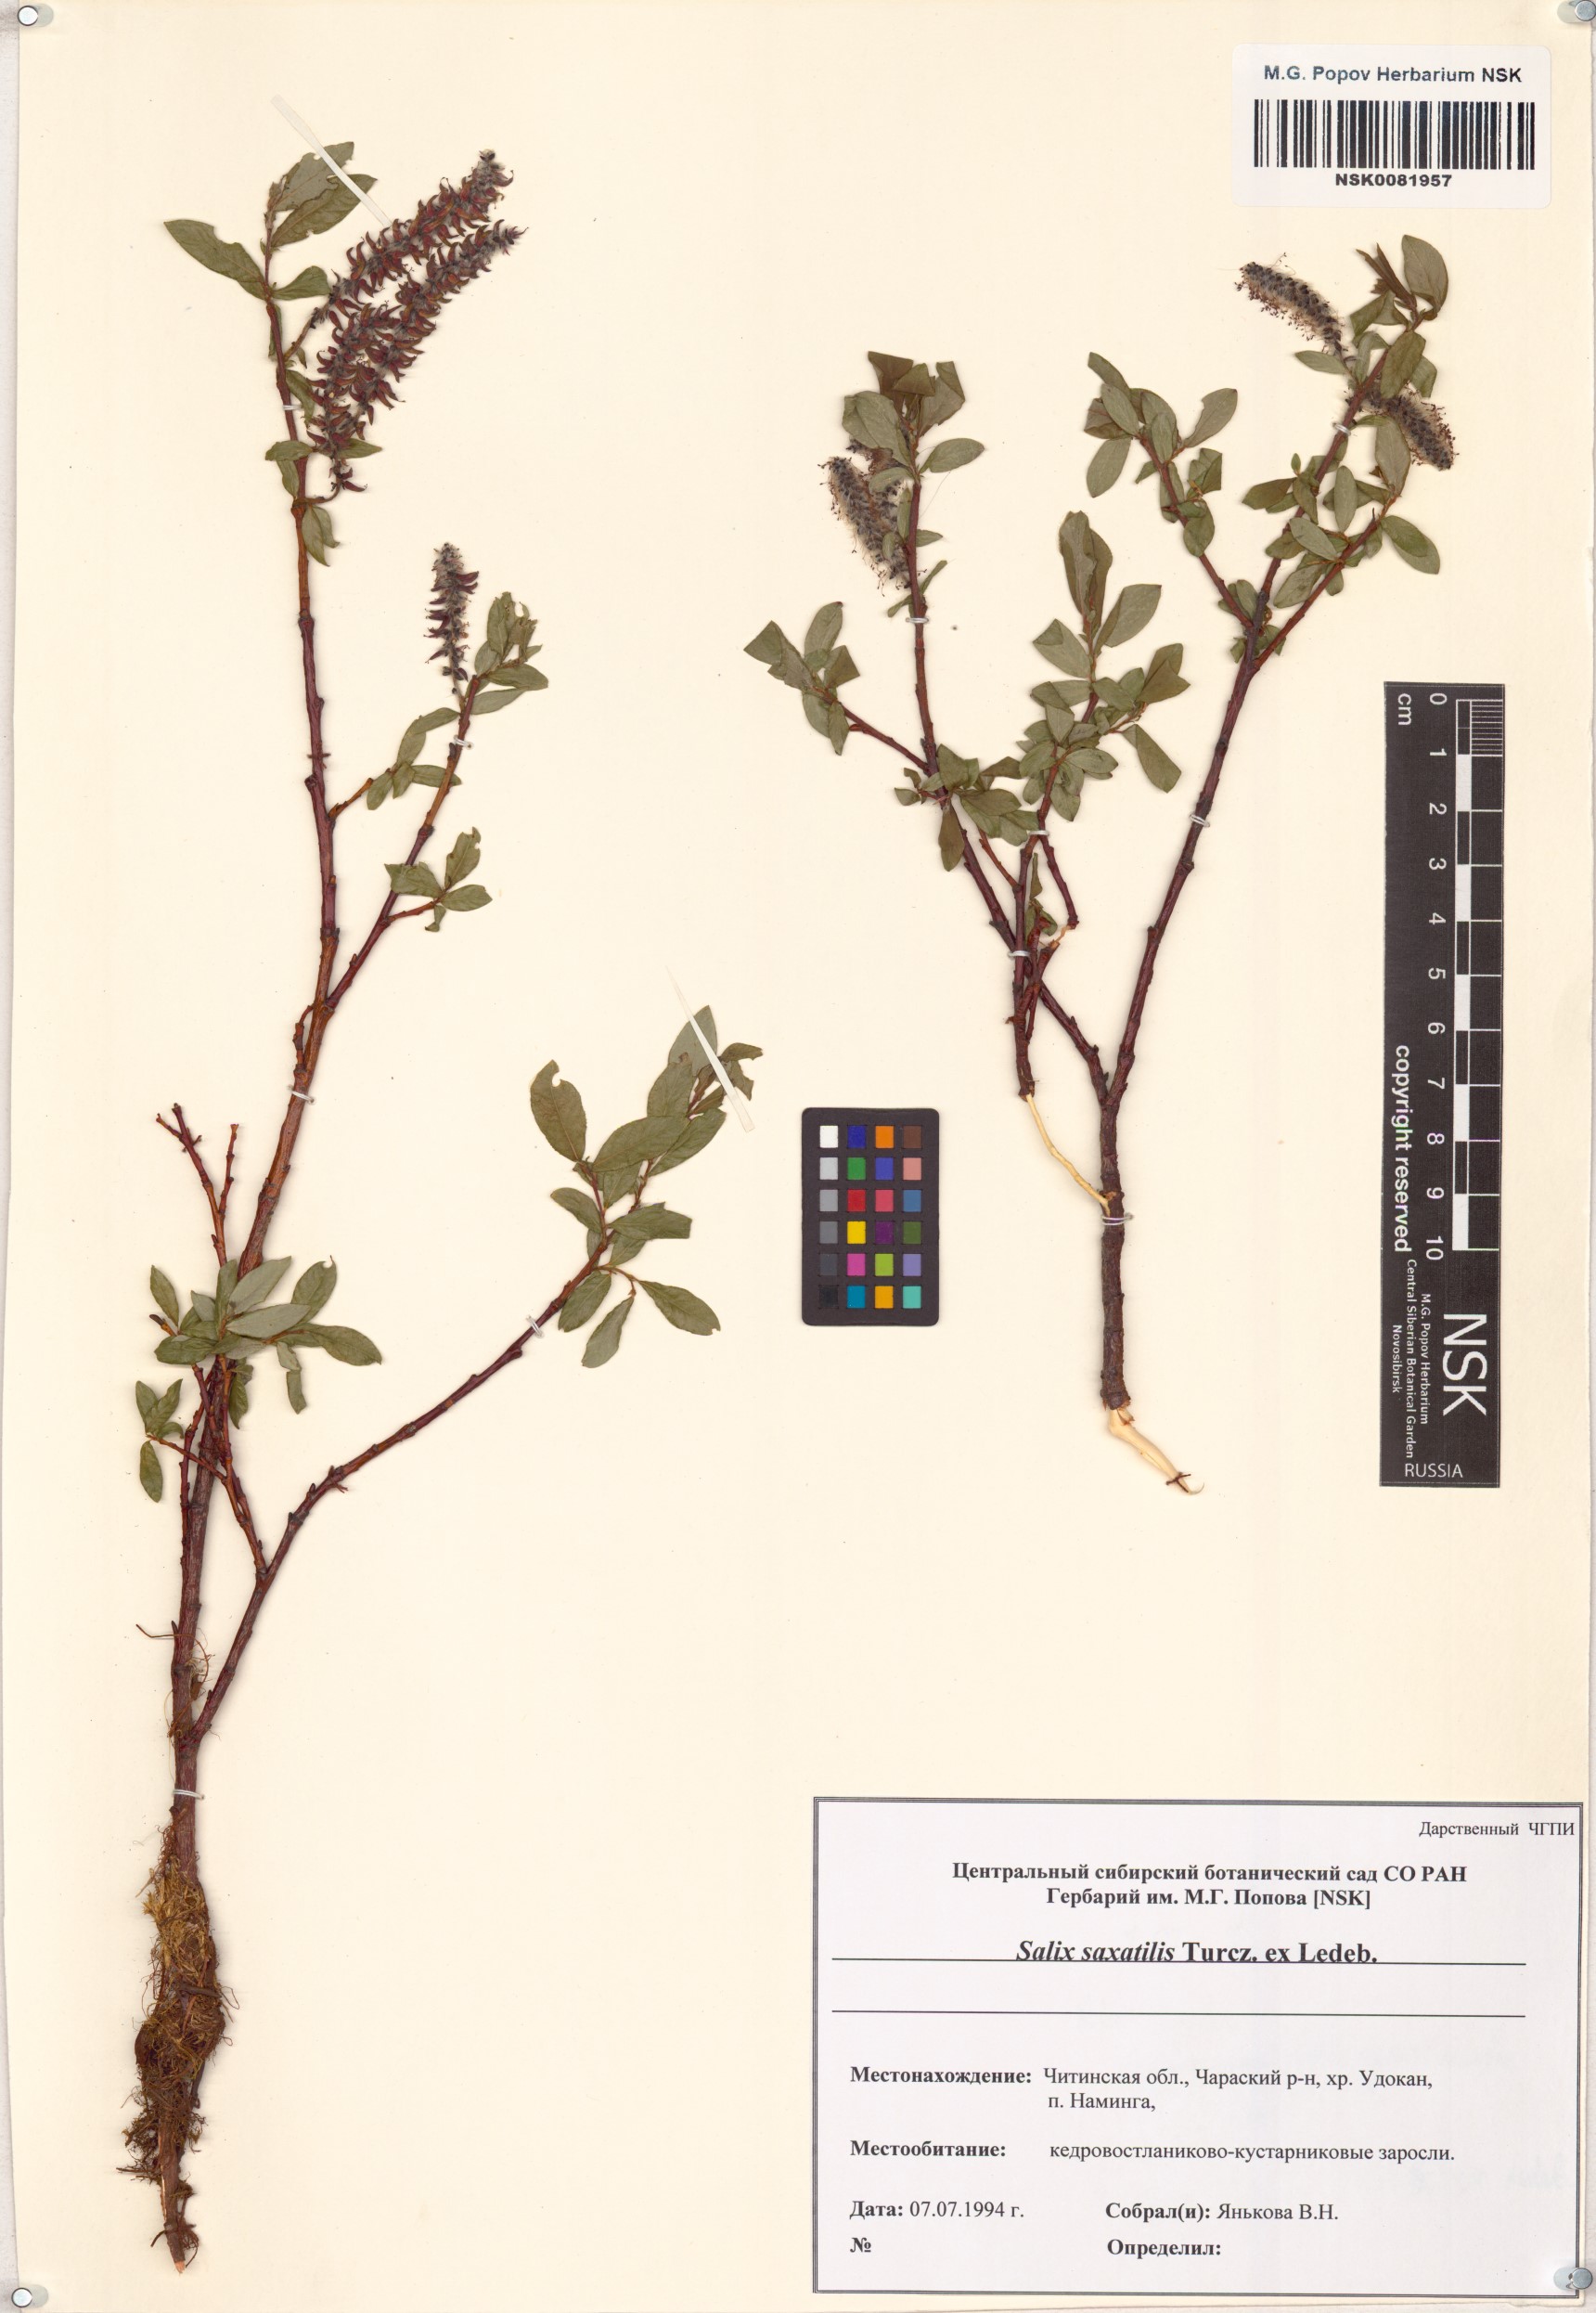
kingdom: Plantae
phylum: Tracheophyta
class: Magnoliopsida
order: Malpighiales
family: Salicaceae
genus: Salix
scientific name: Salix saxatilis
